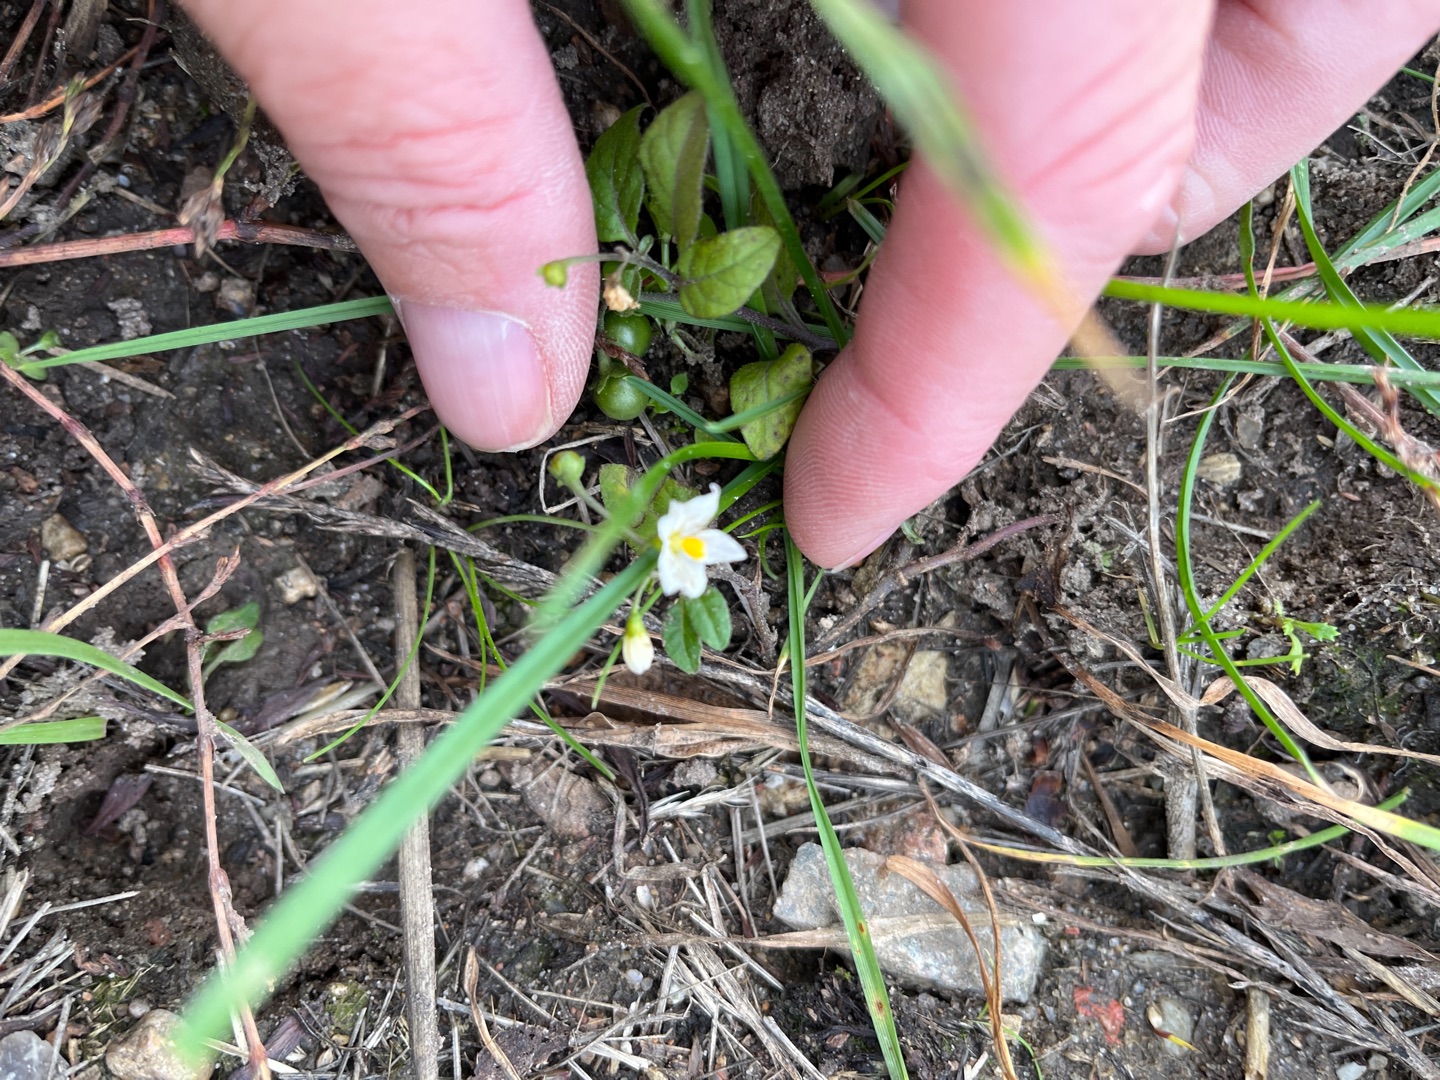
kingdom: Plantae
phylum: Tracheophyta
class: Magnoliopsida
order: Solanales
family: Solanaceae
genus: Solanum
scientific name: Solanum nigrum
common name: Sort natskygge
